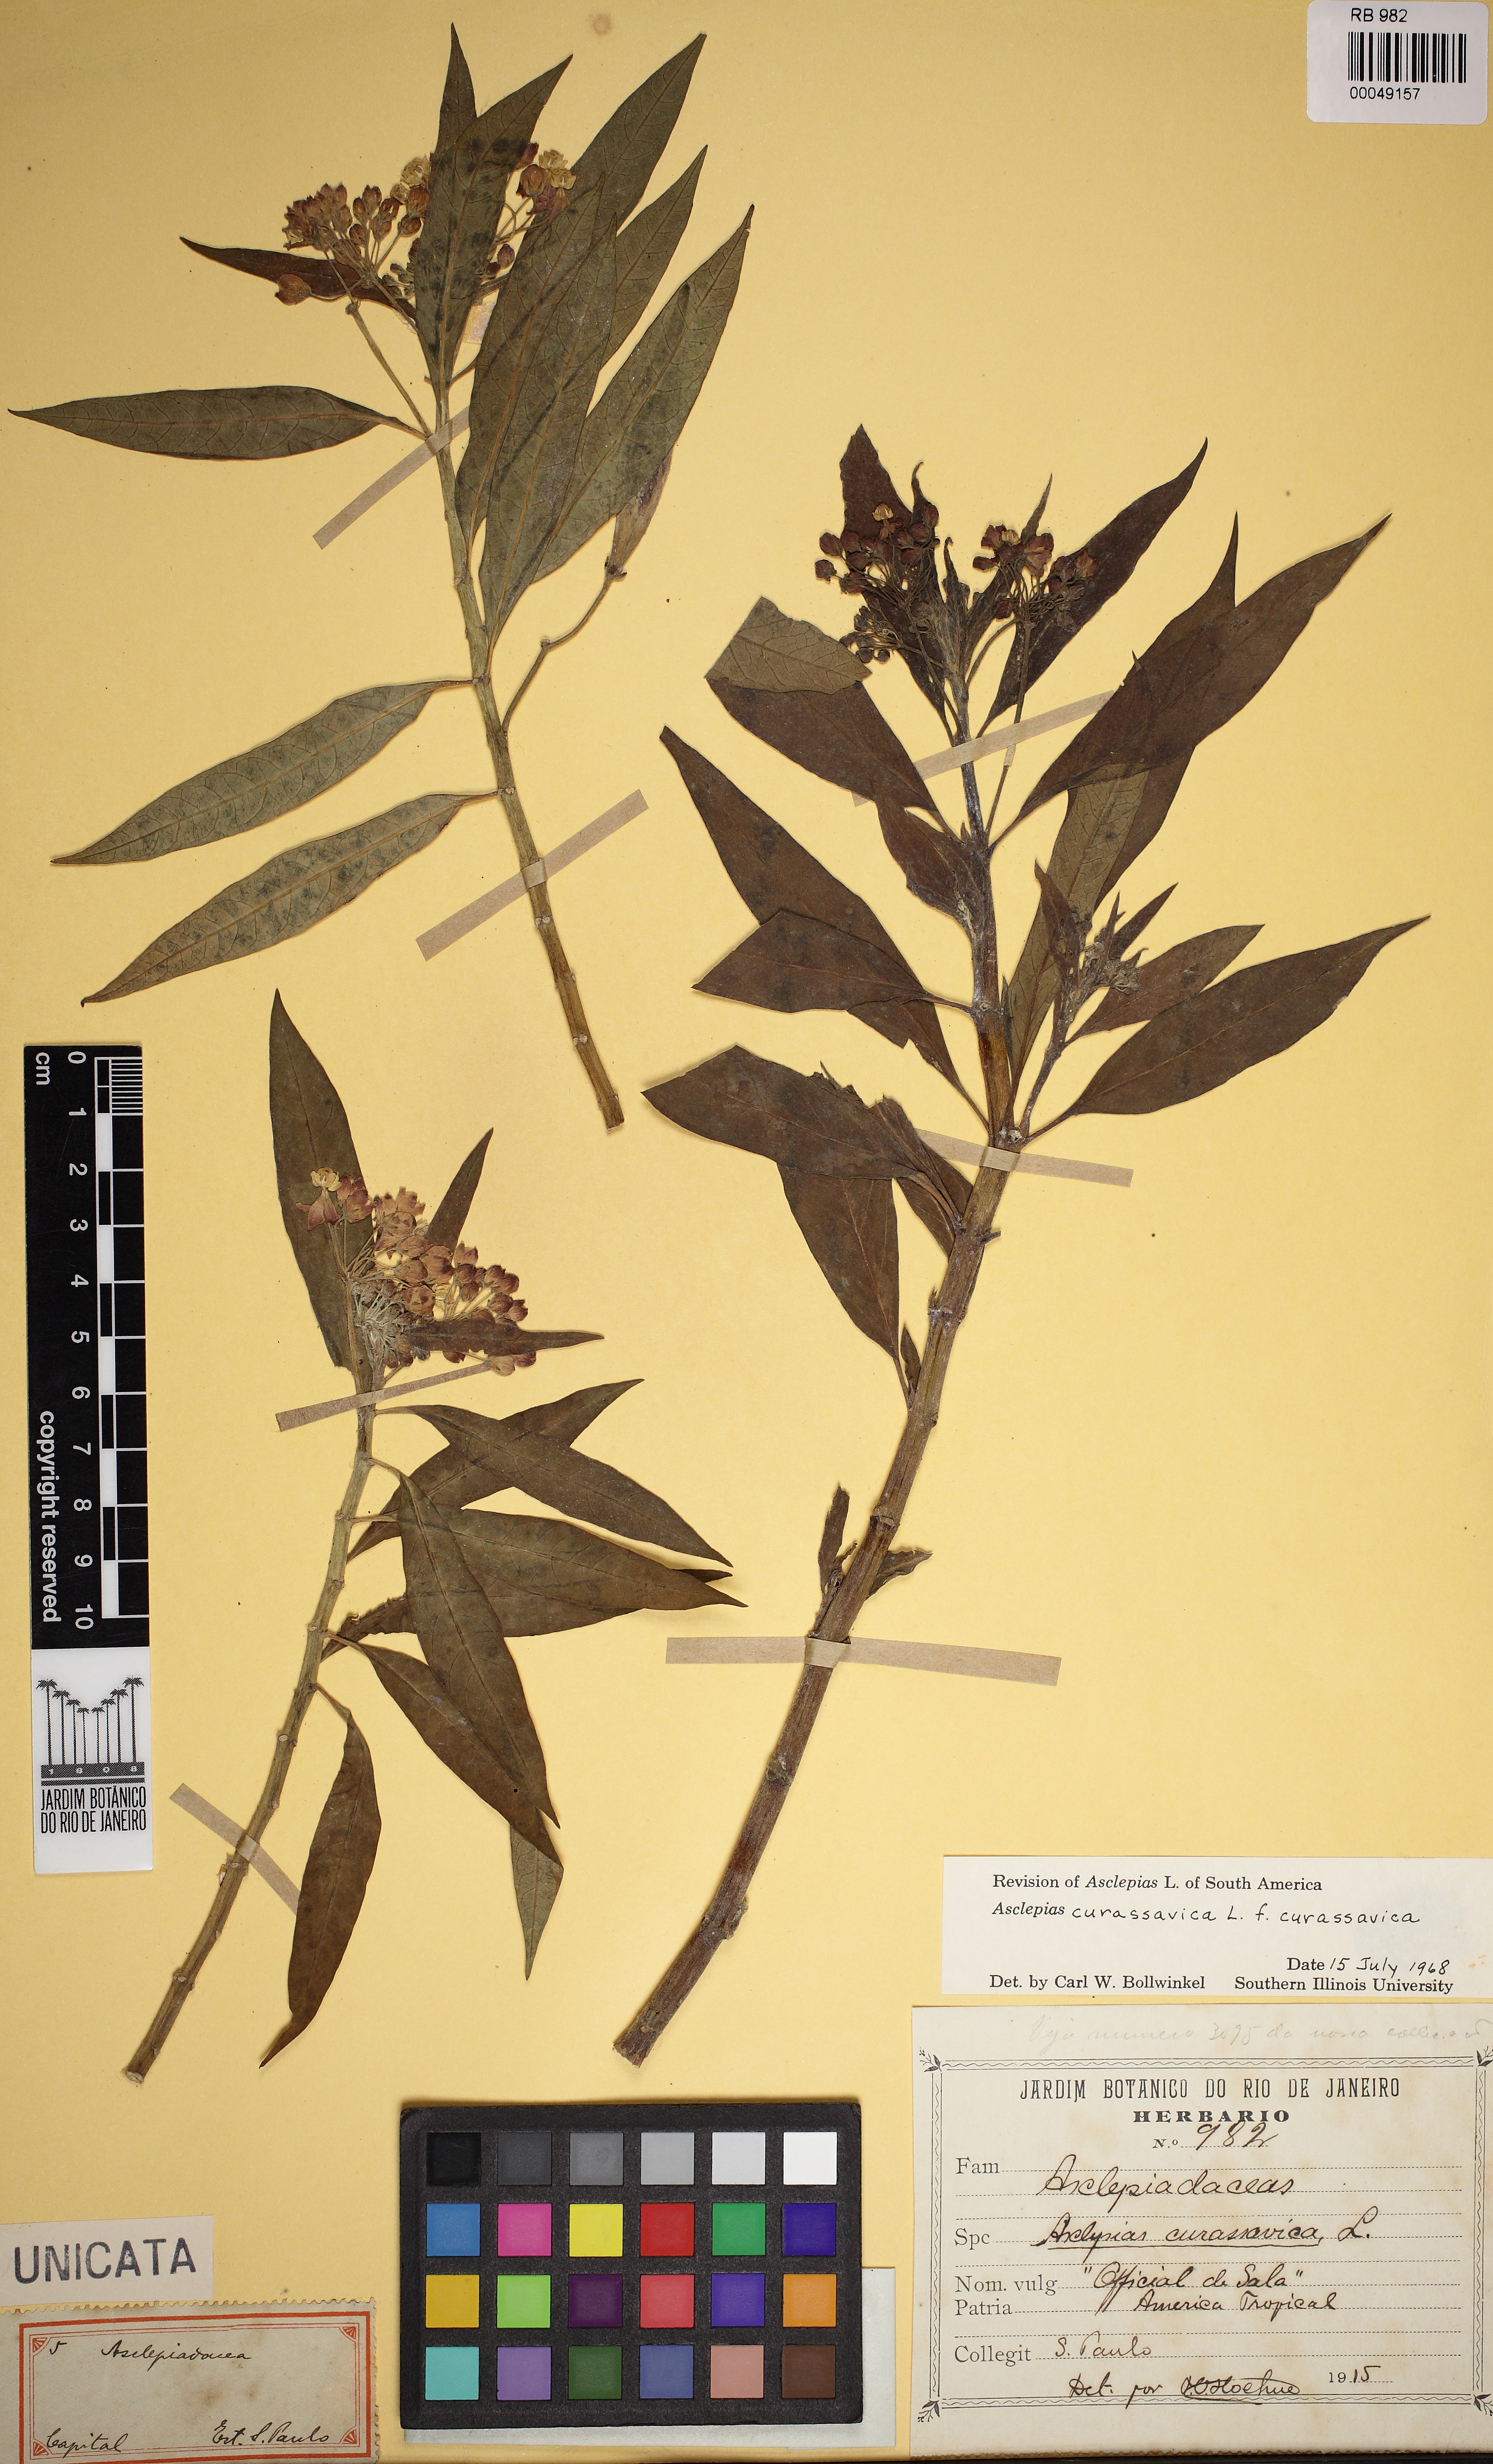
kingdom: Plantae
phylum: Tracheophyta
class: Magnoliopsida
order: Gentianales
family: Apocynaceae
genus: Asclepias
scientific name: Asclepias curassavica
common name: Bloodflower
